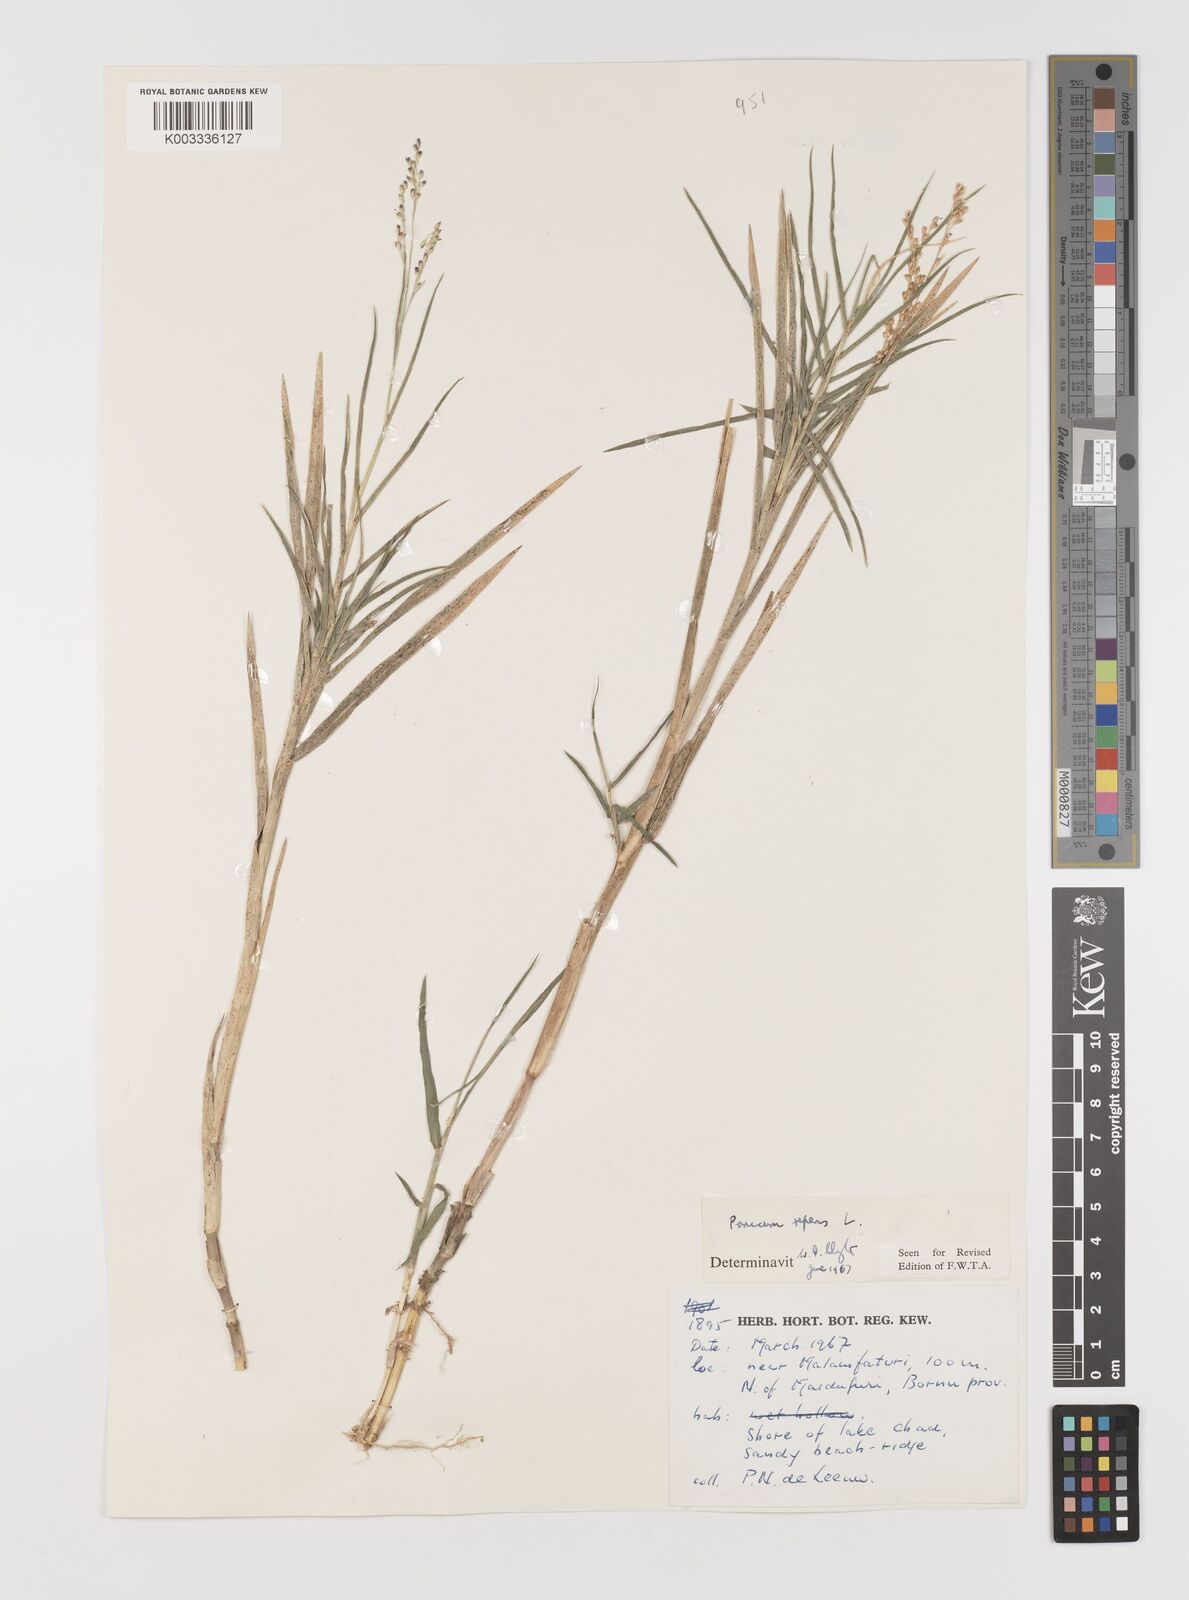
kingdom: Plantae
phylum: Tracheophyta
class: Liliopsida
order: Poales
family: Poaceae
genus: Panicum
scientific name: Panicum repens
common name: Torpedo grass
